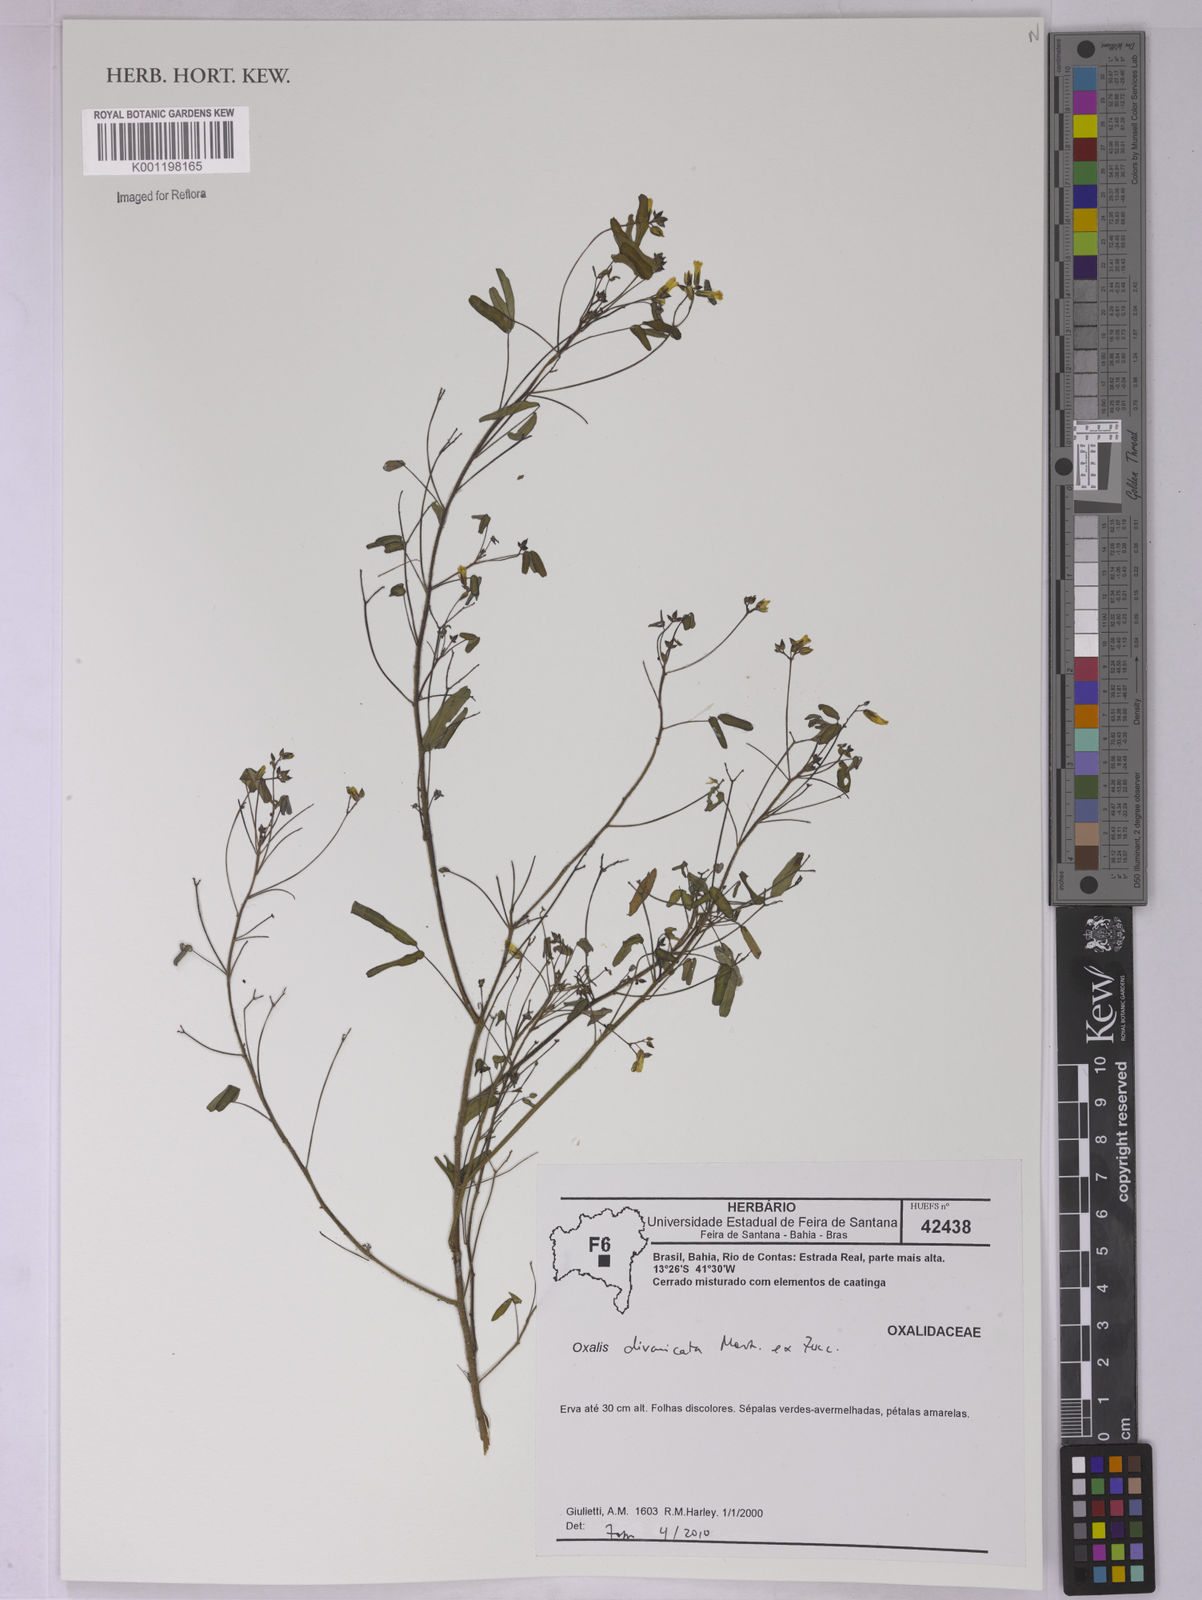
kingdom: Plantae
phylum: Tracheophyta
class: Magnoliopsida
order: Oxalidales
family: Oxalidaceae
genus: Oxalis
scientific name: Oxalis divaricata
